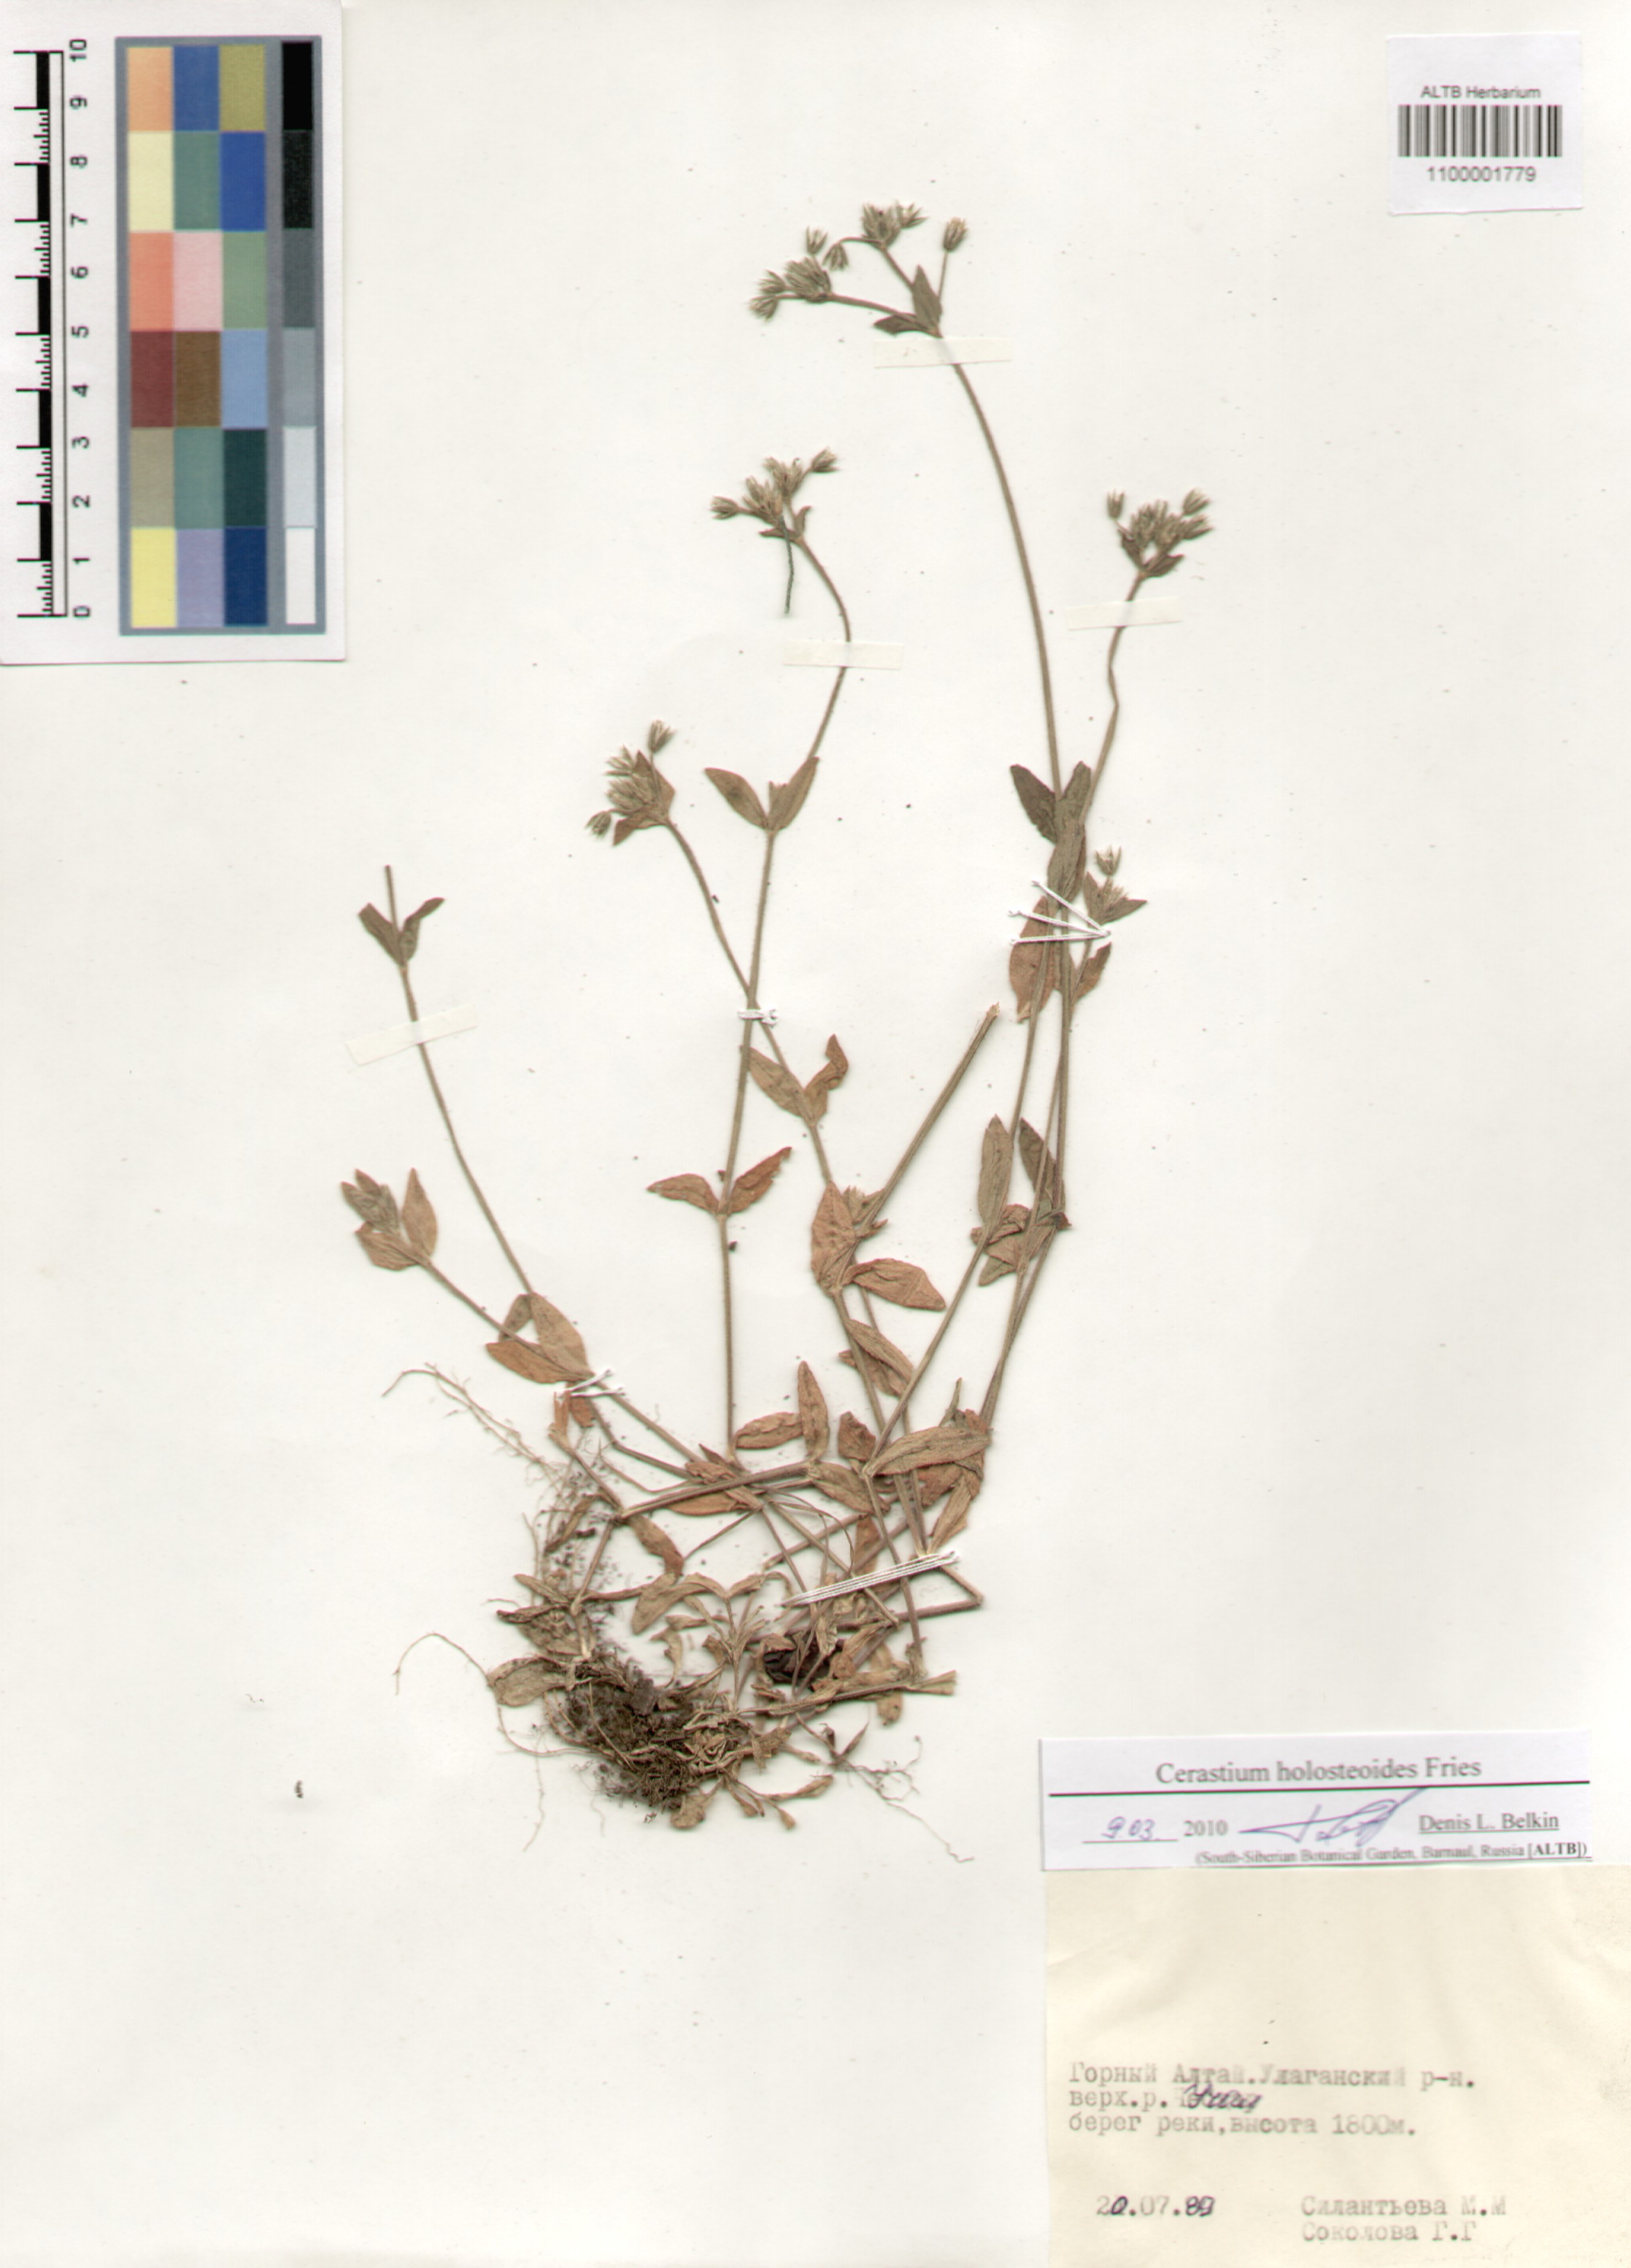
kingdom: Plantae
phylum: Tracheophyta
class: Magnoliopsida
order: Caryophyllales
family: Caryophyllaceae
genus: Cerastium
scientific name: Cerastium holosteoides
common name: Big chickweed
